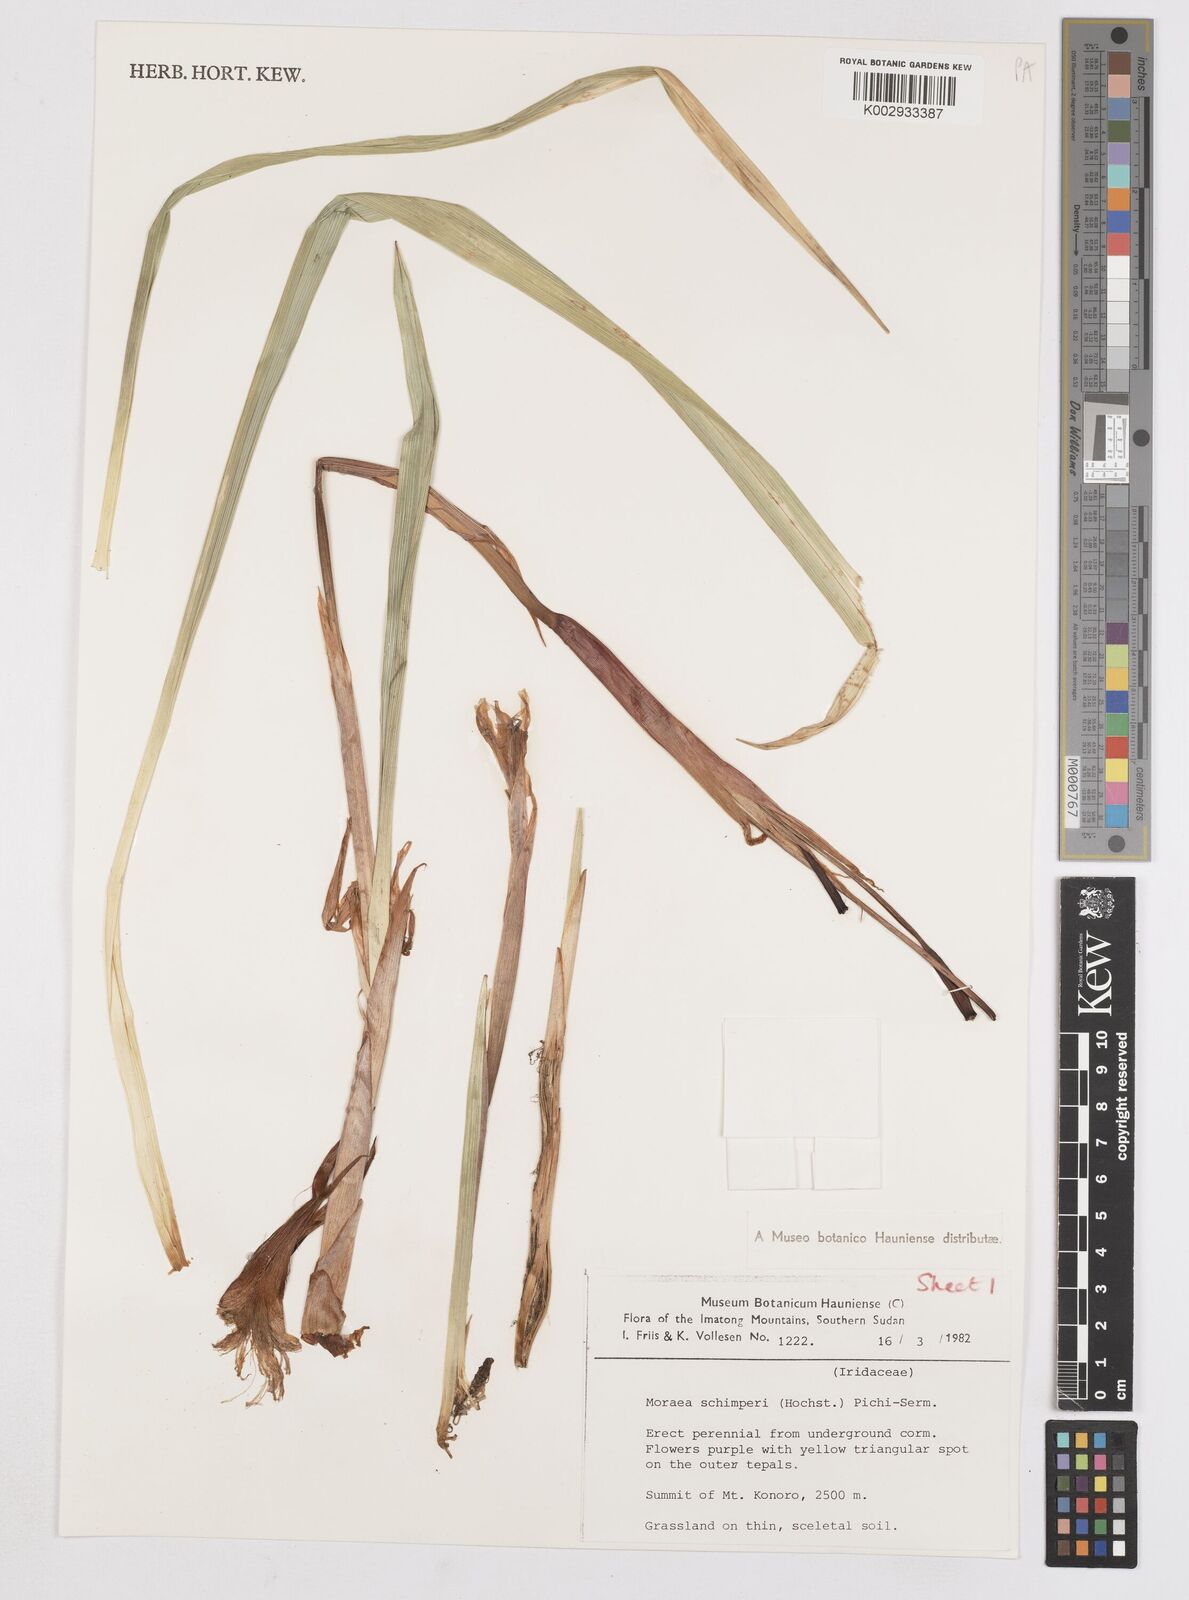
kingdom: Plantae
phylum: Tracheophyta
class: Liliopsida
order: Asparagales
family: Iridaceae
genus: Moraea
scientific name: Moraea schimperi
